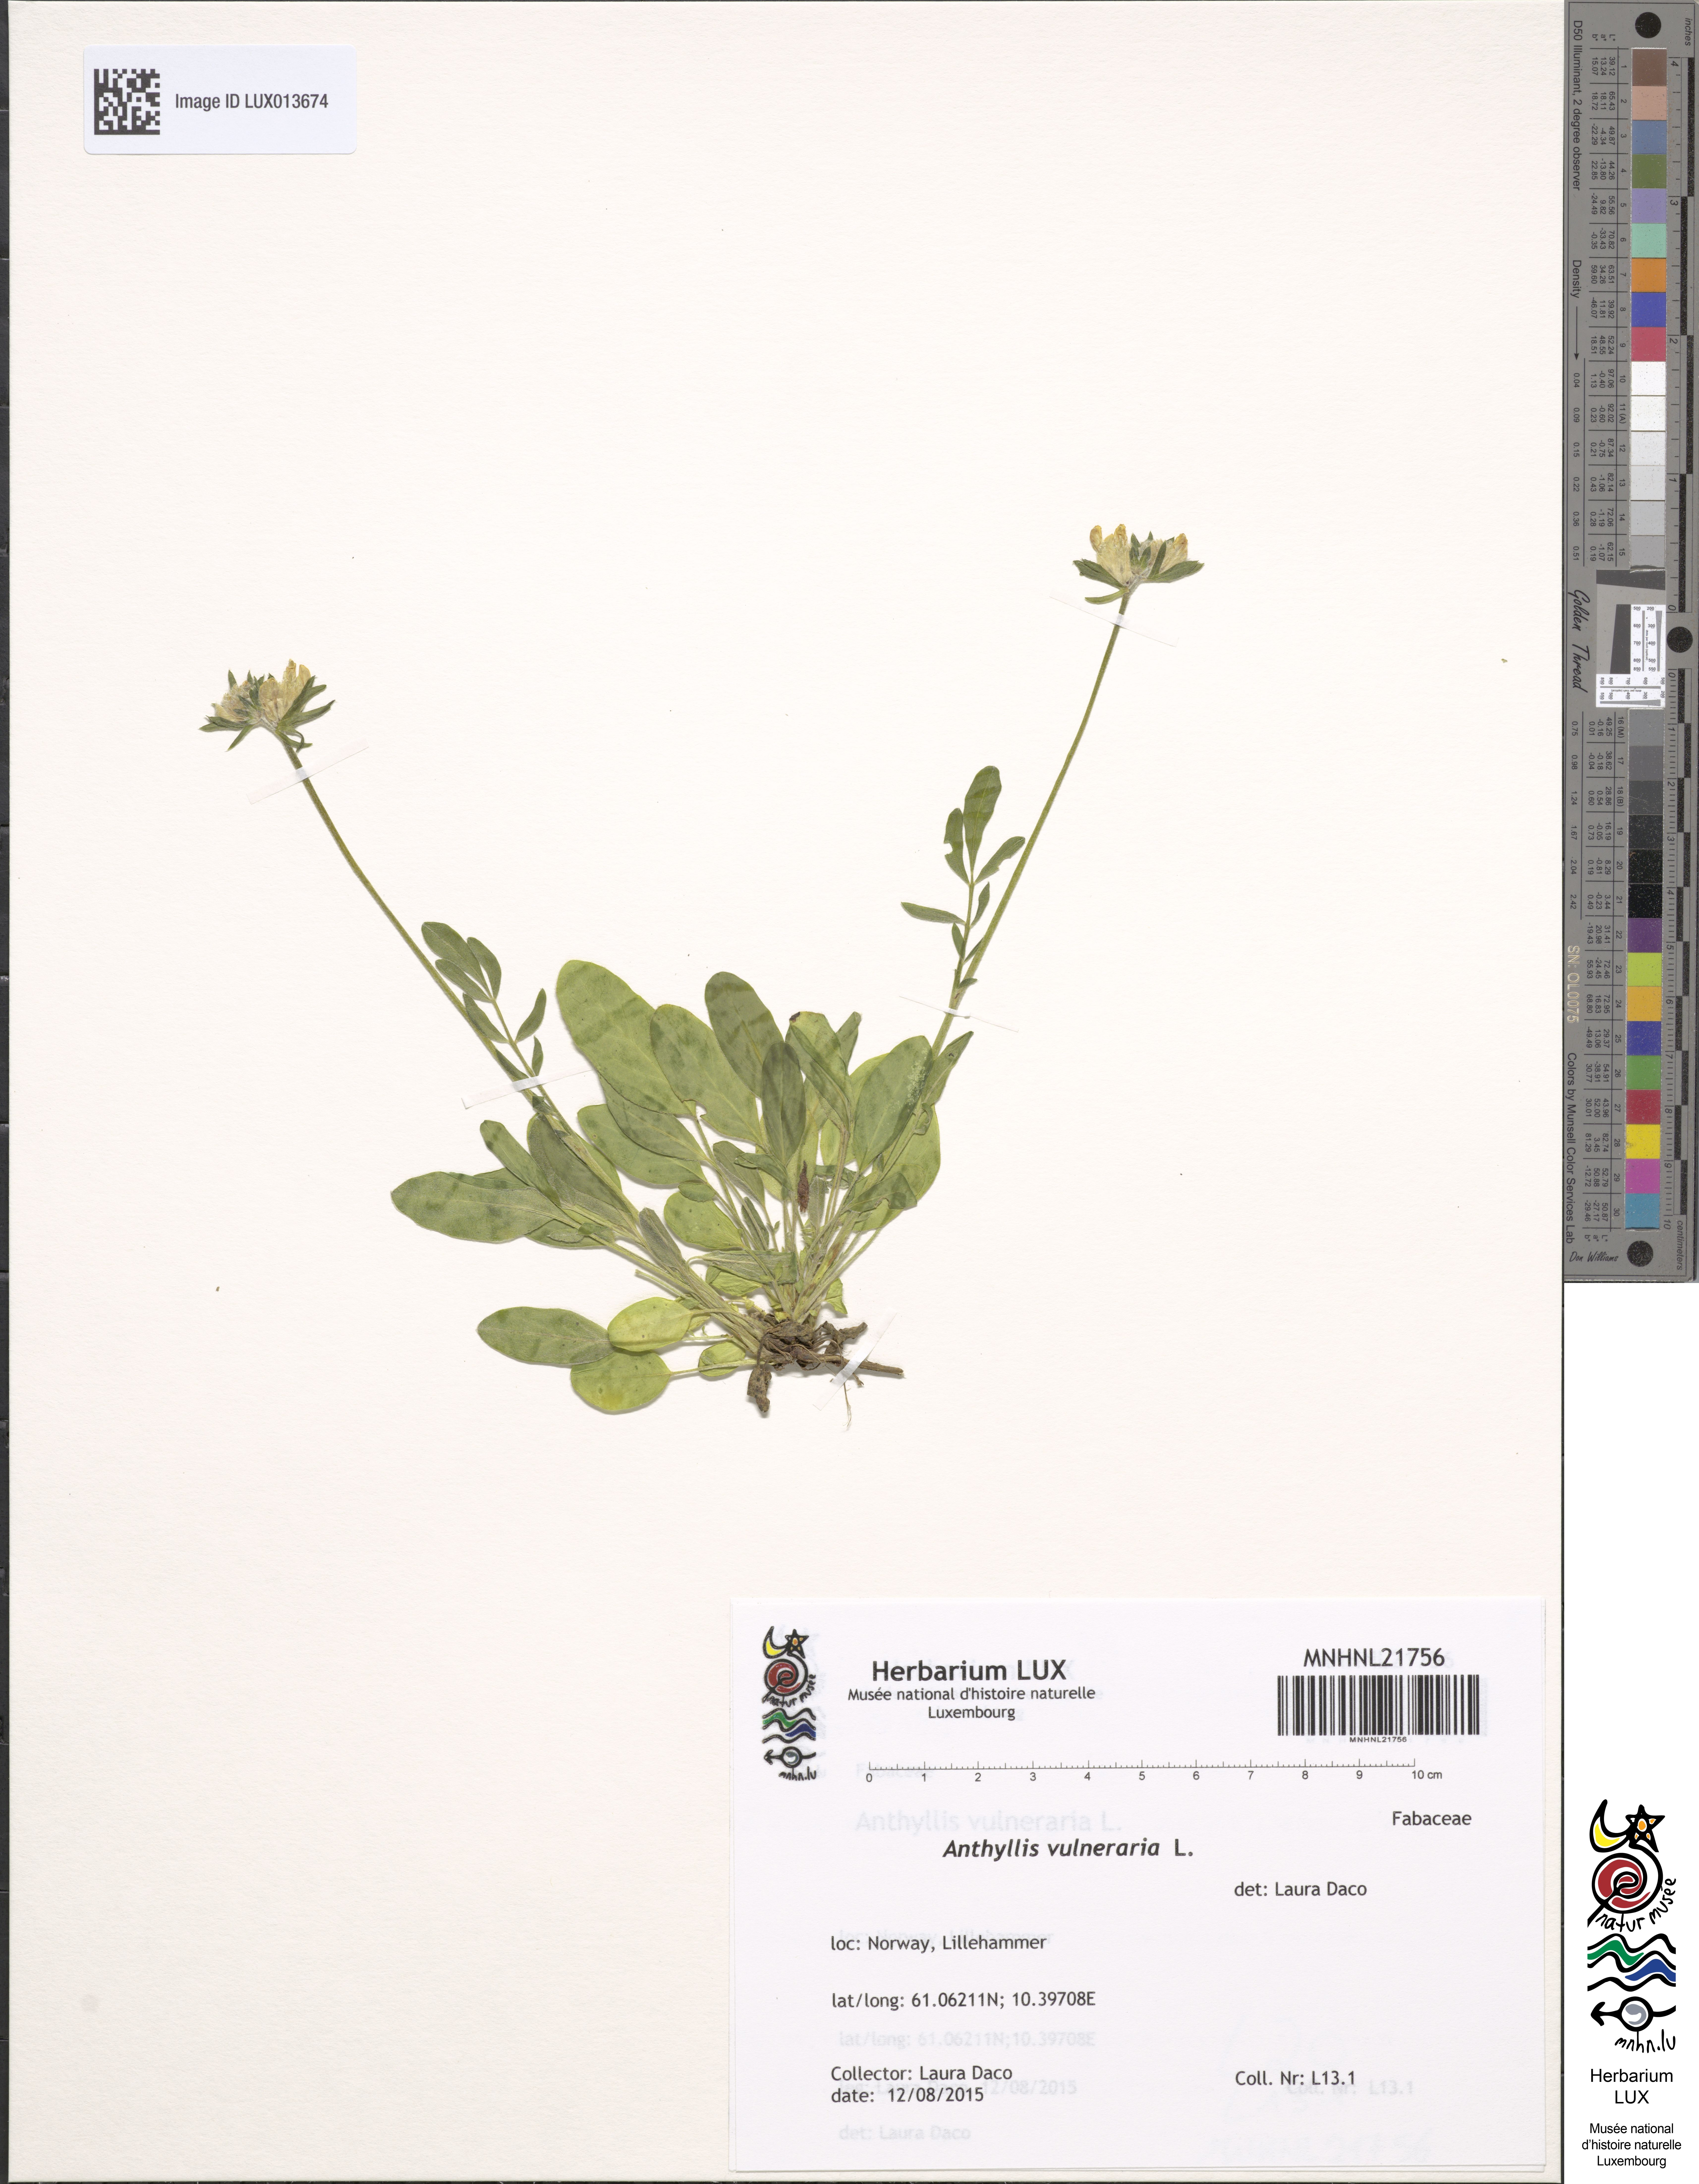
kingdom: Plantae
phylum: Tracheophyta
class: Magnoliopsida
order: Fabales
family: Fabaceae
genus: Anthyllis
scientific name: Anthyllis vulneraria
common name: Kidney vetch
